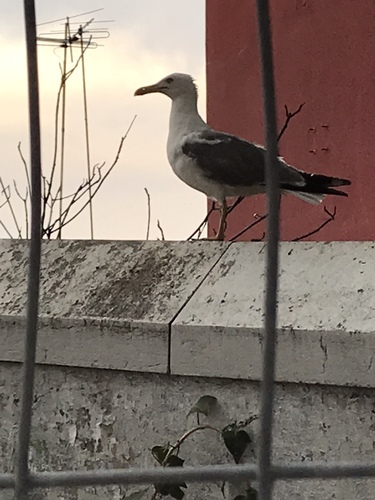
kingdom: Animalia
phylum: Chordata
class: Aves
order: Charadriiformes
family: Laridae
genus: Larus
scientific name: Larus michahellis
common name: Yellow-legged gull
